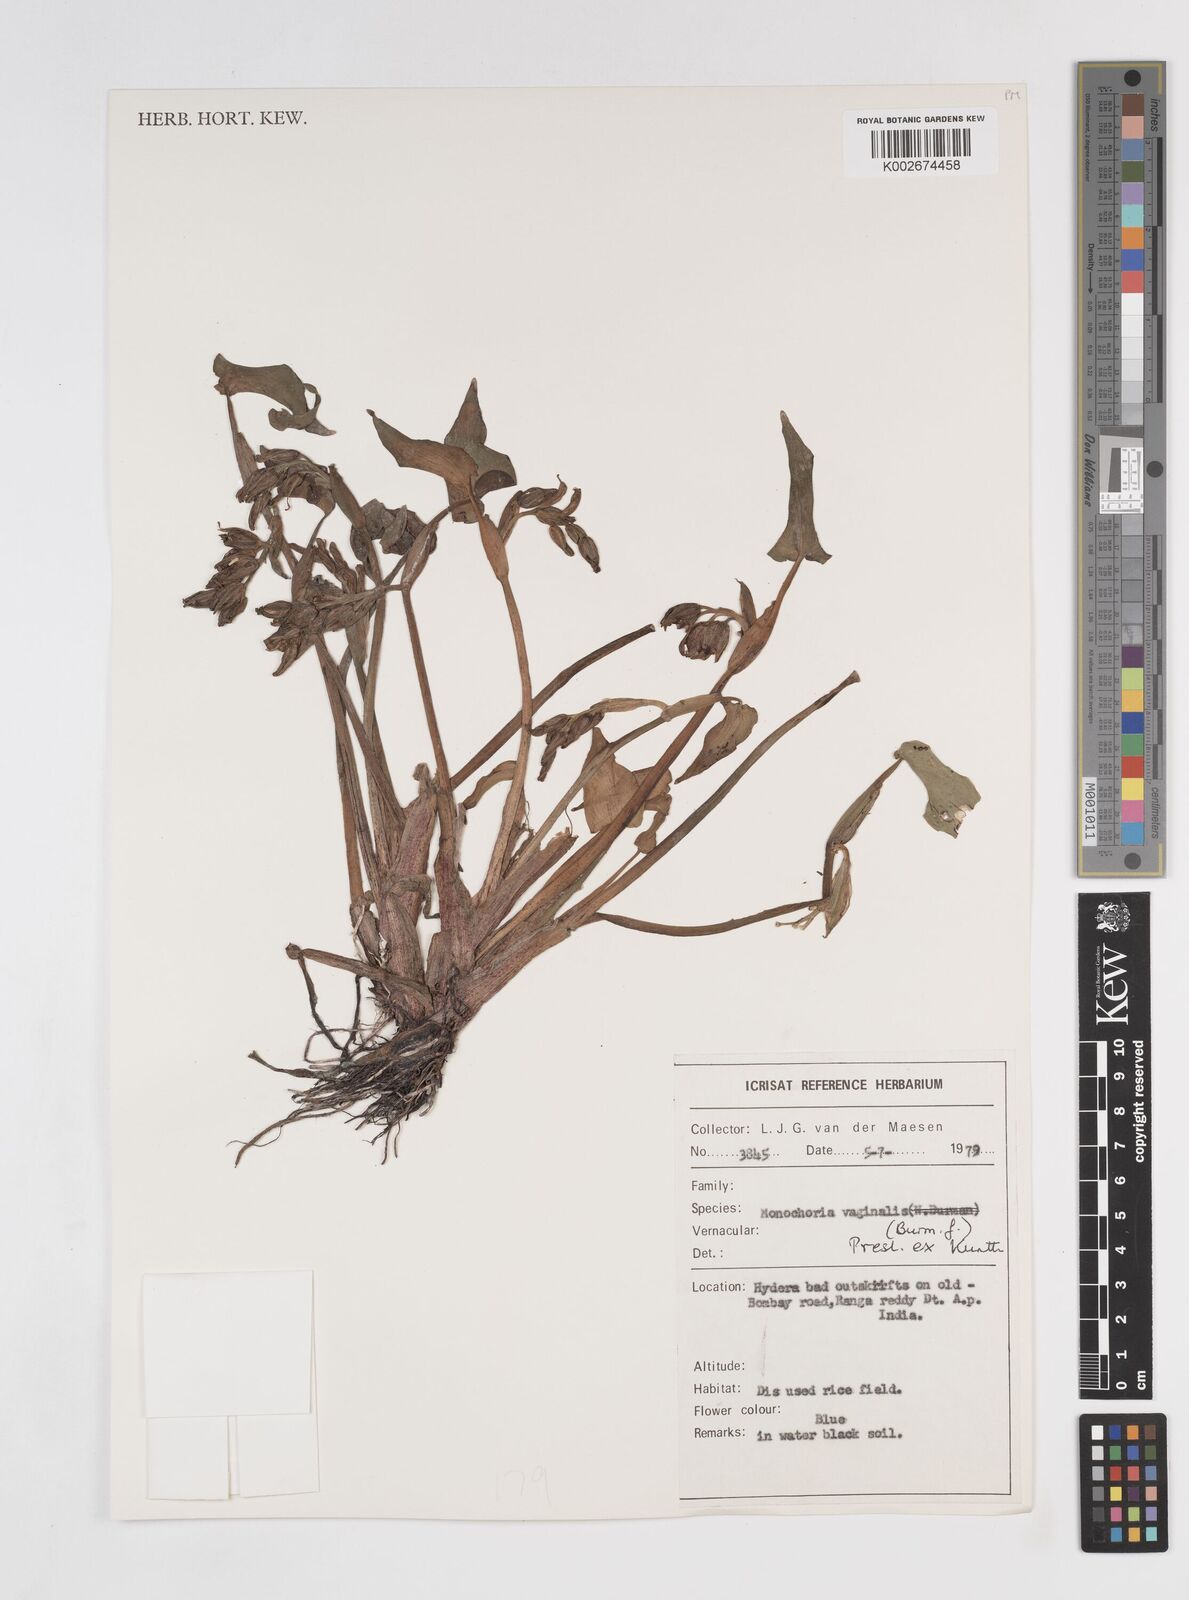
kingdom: Plantae
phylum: Tracheophyta
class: Liliopsida
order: Commelinales
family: Pontederiaceae
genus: Pontederia
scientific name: Pontederia vaginalis
